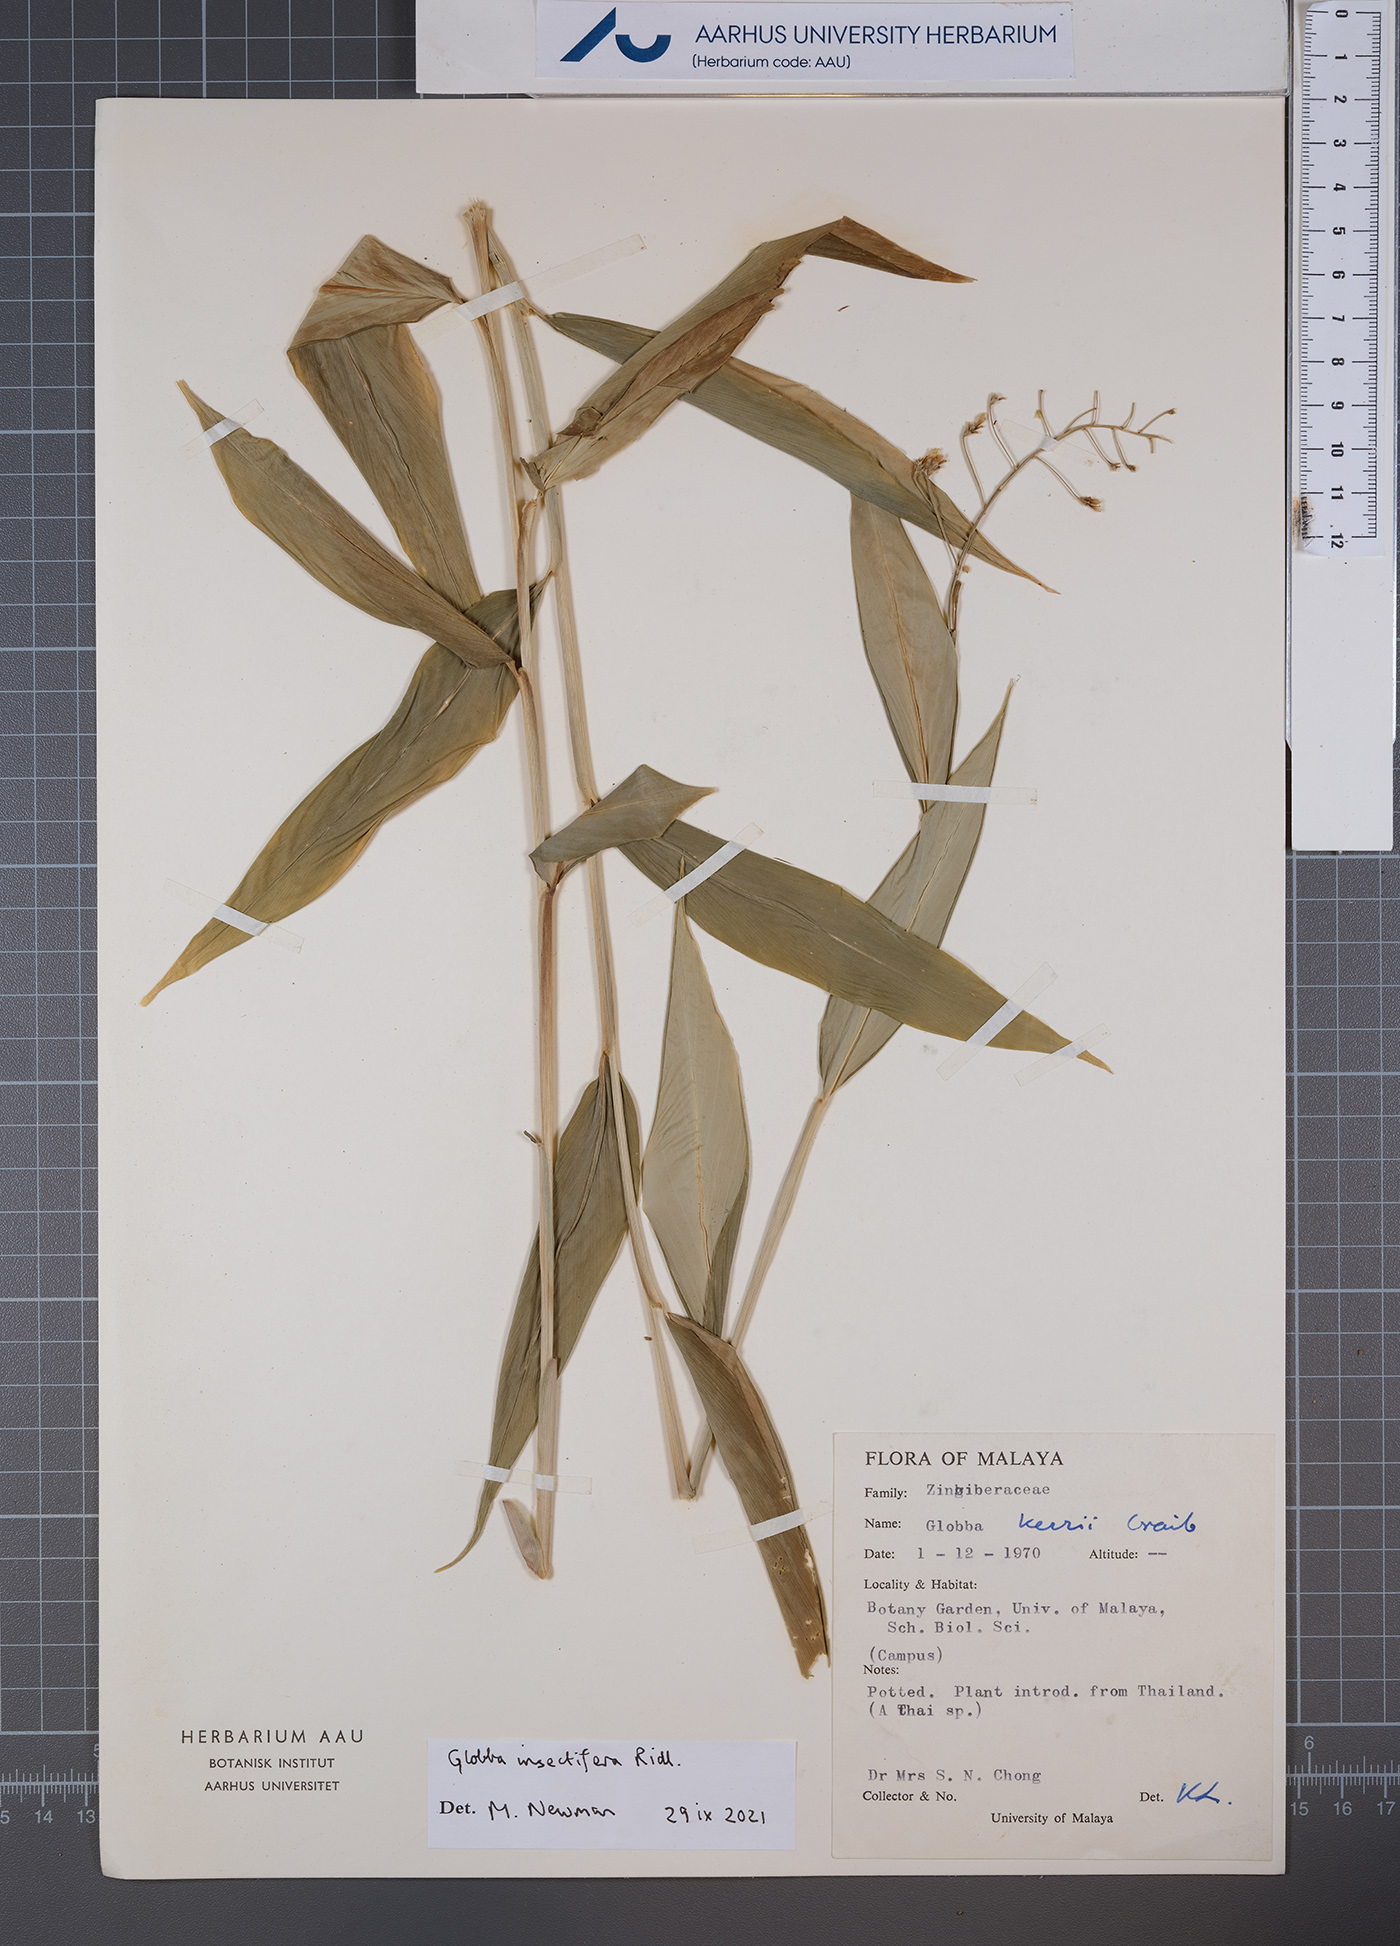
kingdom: Plantae
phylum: Tracheophyta
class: Liliopsida
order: Zingiberales
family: Zingiberaceae
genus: Globba
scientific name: Globba insectifera
